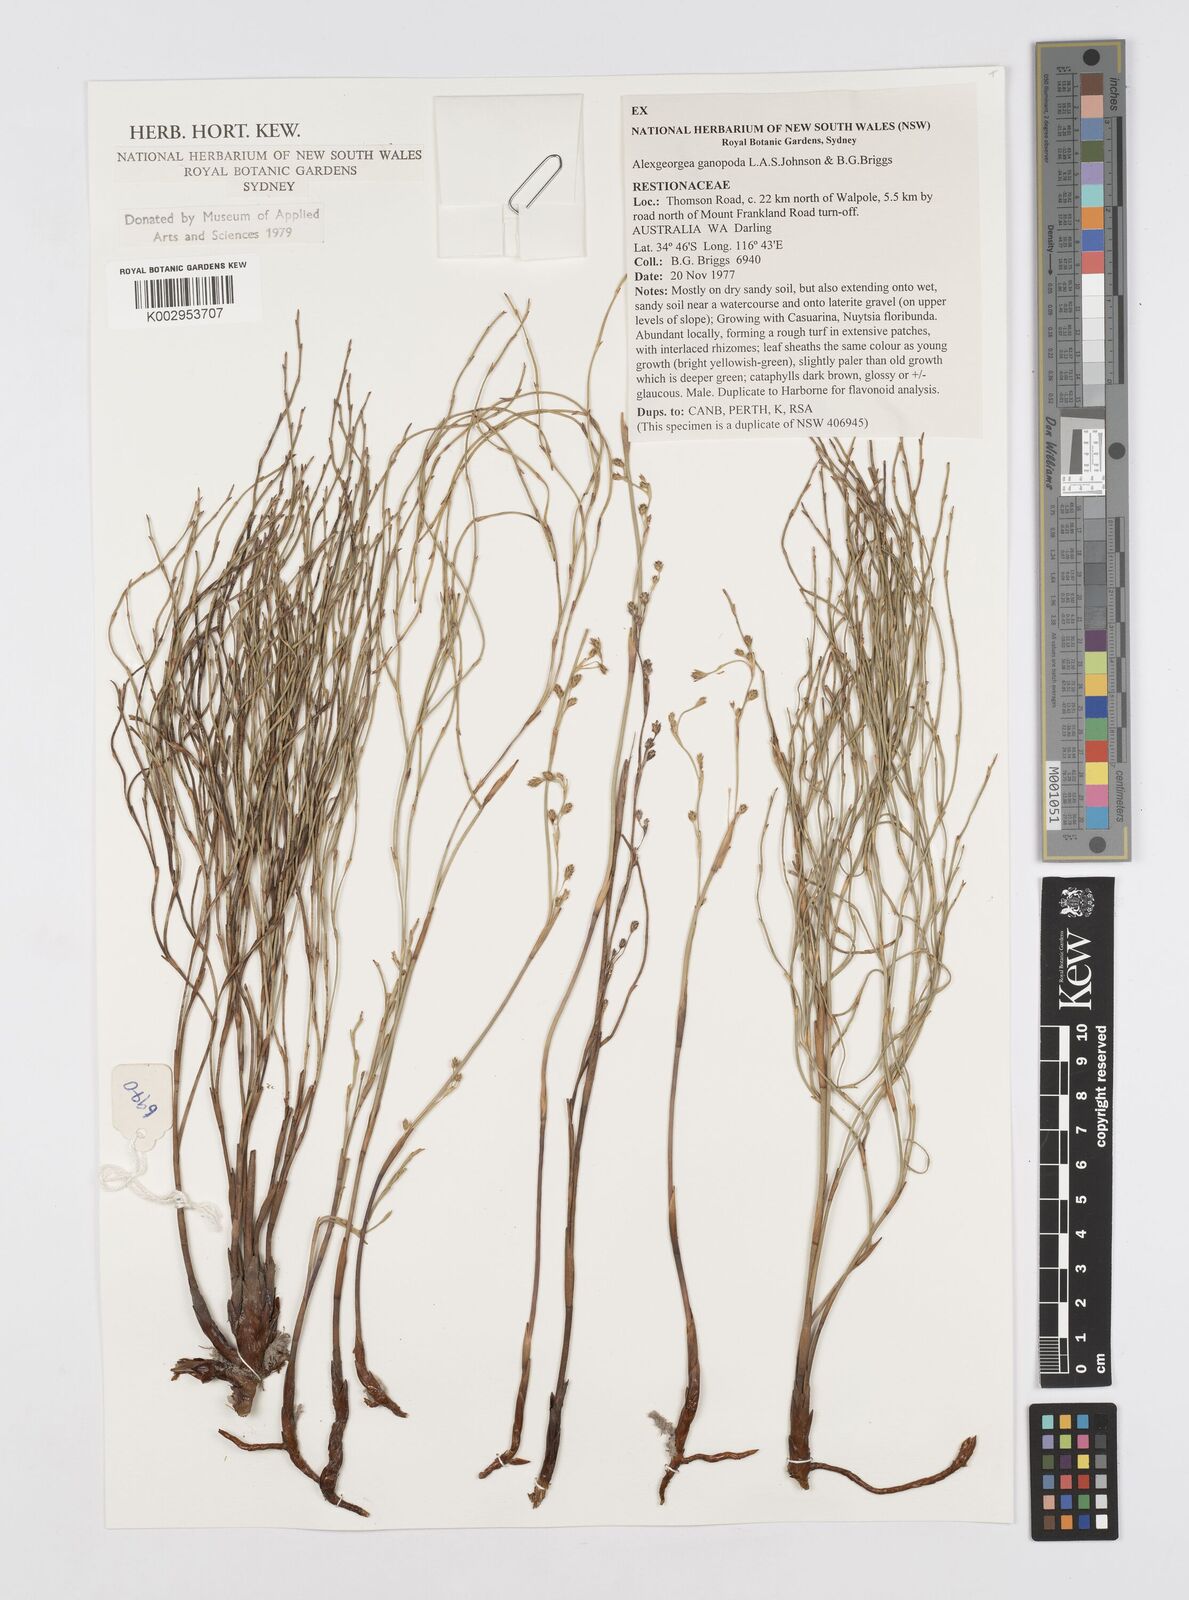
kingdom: Plantae
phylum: Tracheophyta
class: Liliopsida
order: Poales
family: Restionaceae
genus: Alexgeorgea
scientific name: Alexgeorgea ganopoda
